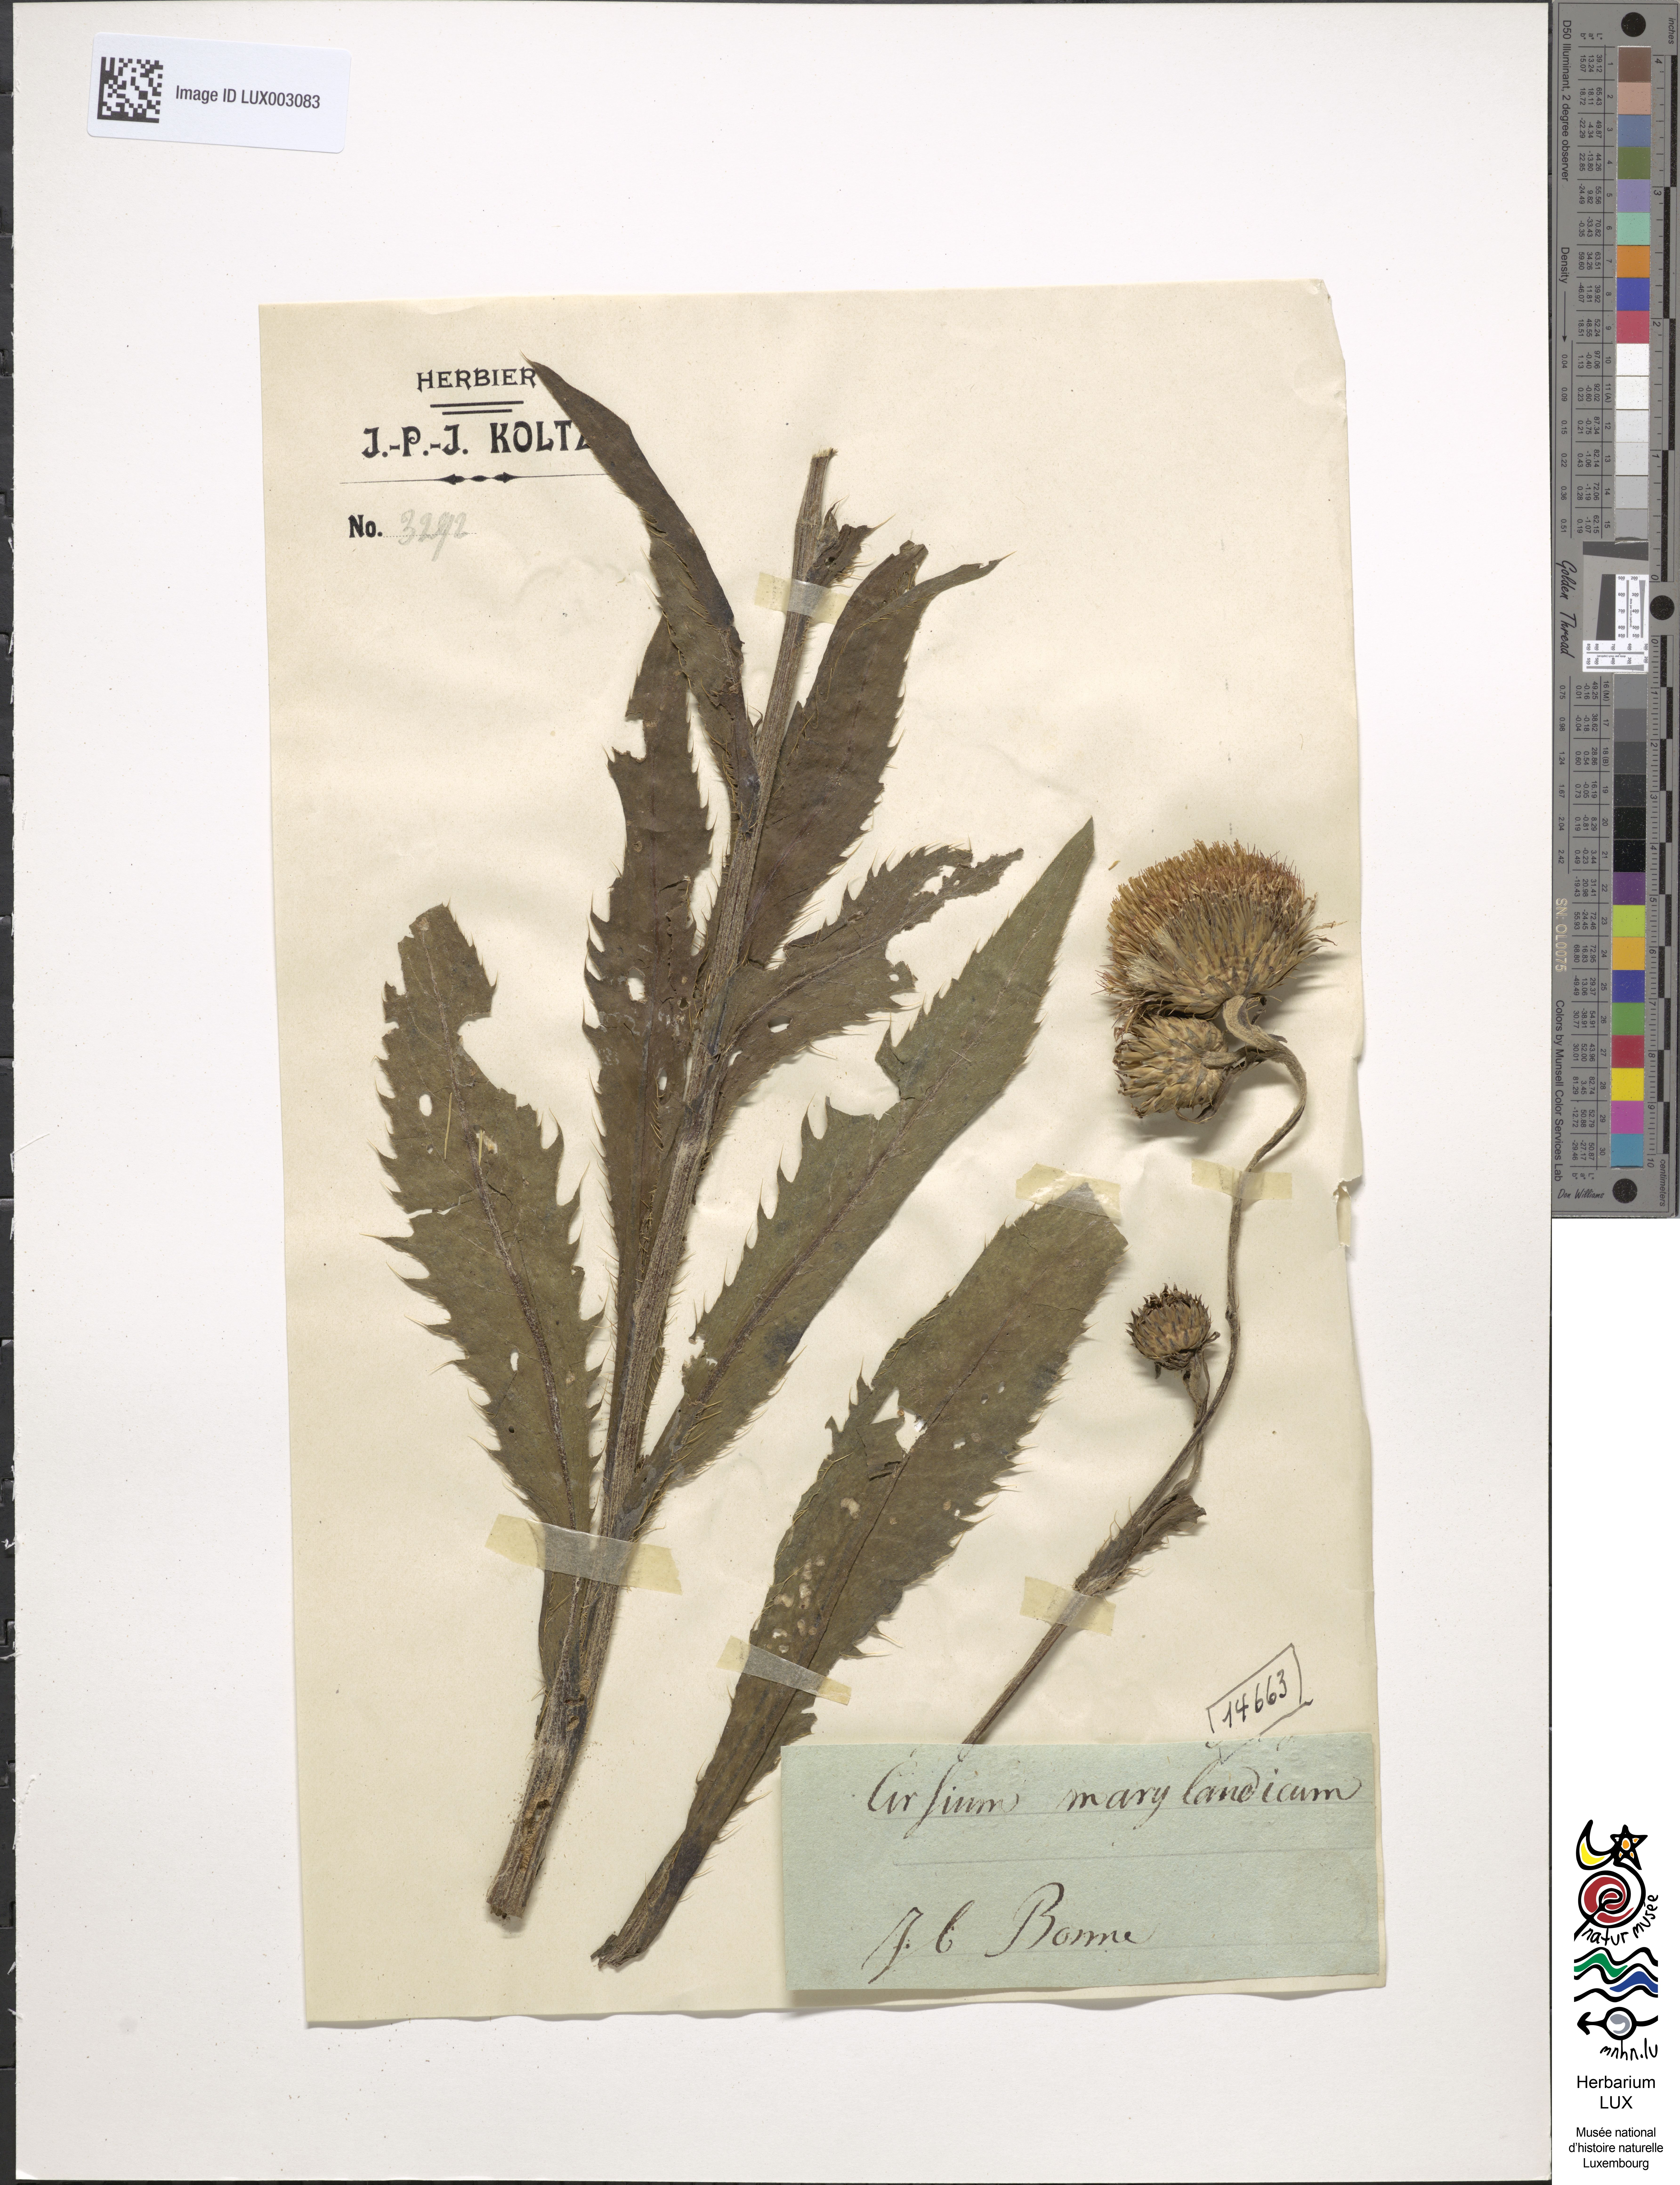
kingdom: Plantae
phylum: Tracheophyta
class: Magnoliopsida
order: Asterales
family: Asteraceae
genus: Cirsium
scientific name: Cirsium
